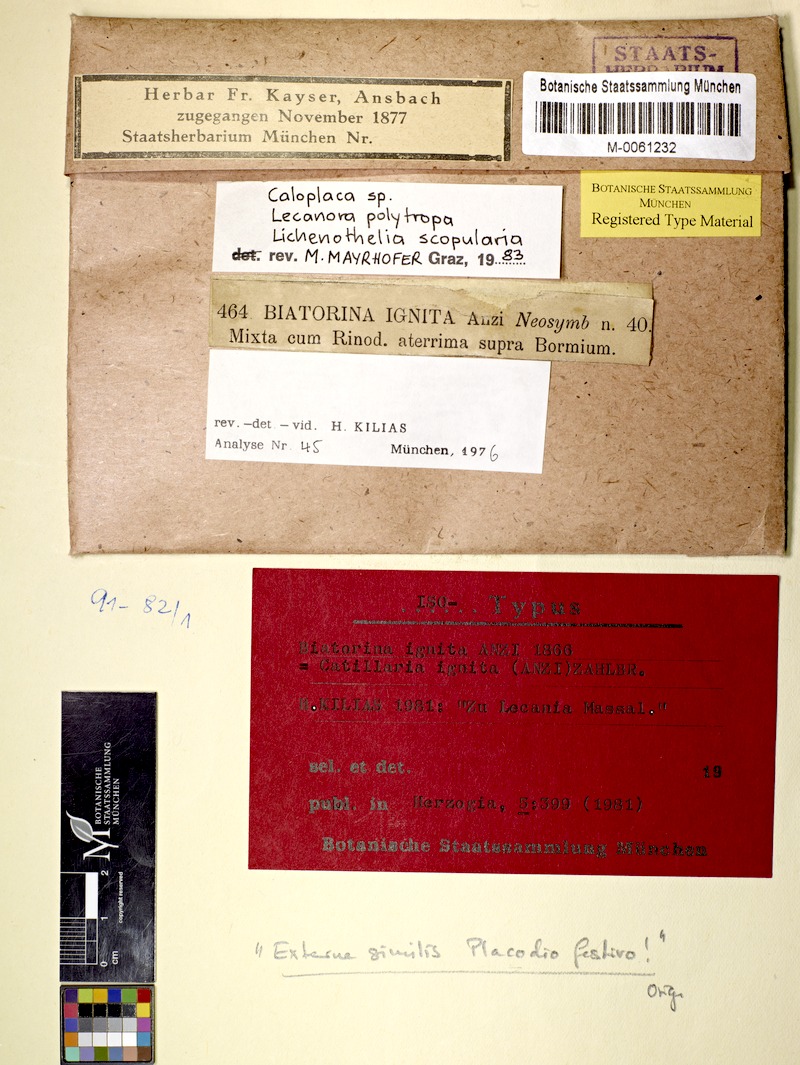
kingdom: Fungi
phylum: Ascomycota
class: Lecanoromycetes
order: Lecanorales
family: Catillariaceae
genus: Catillaria
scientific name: Catillaria ignita
